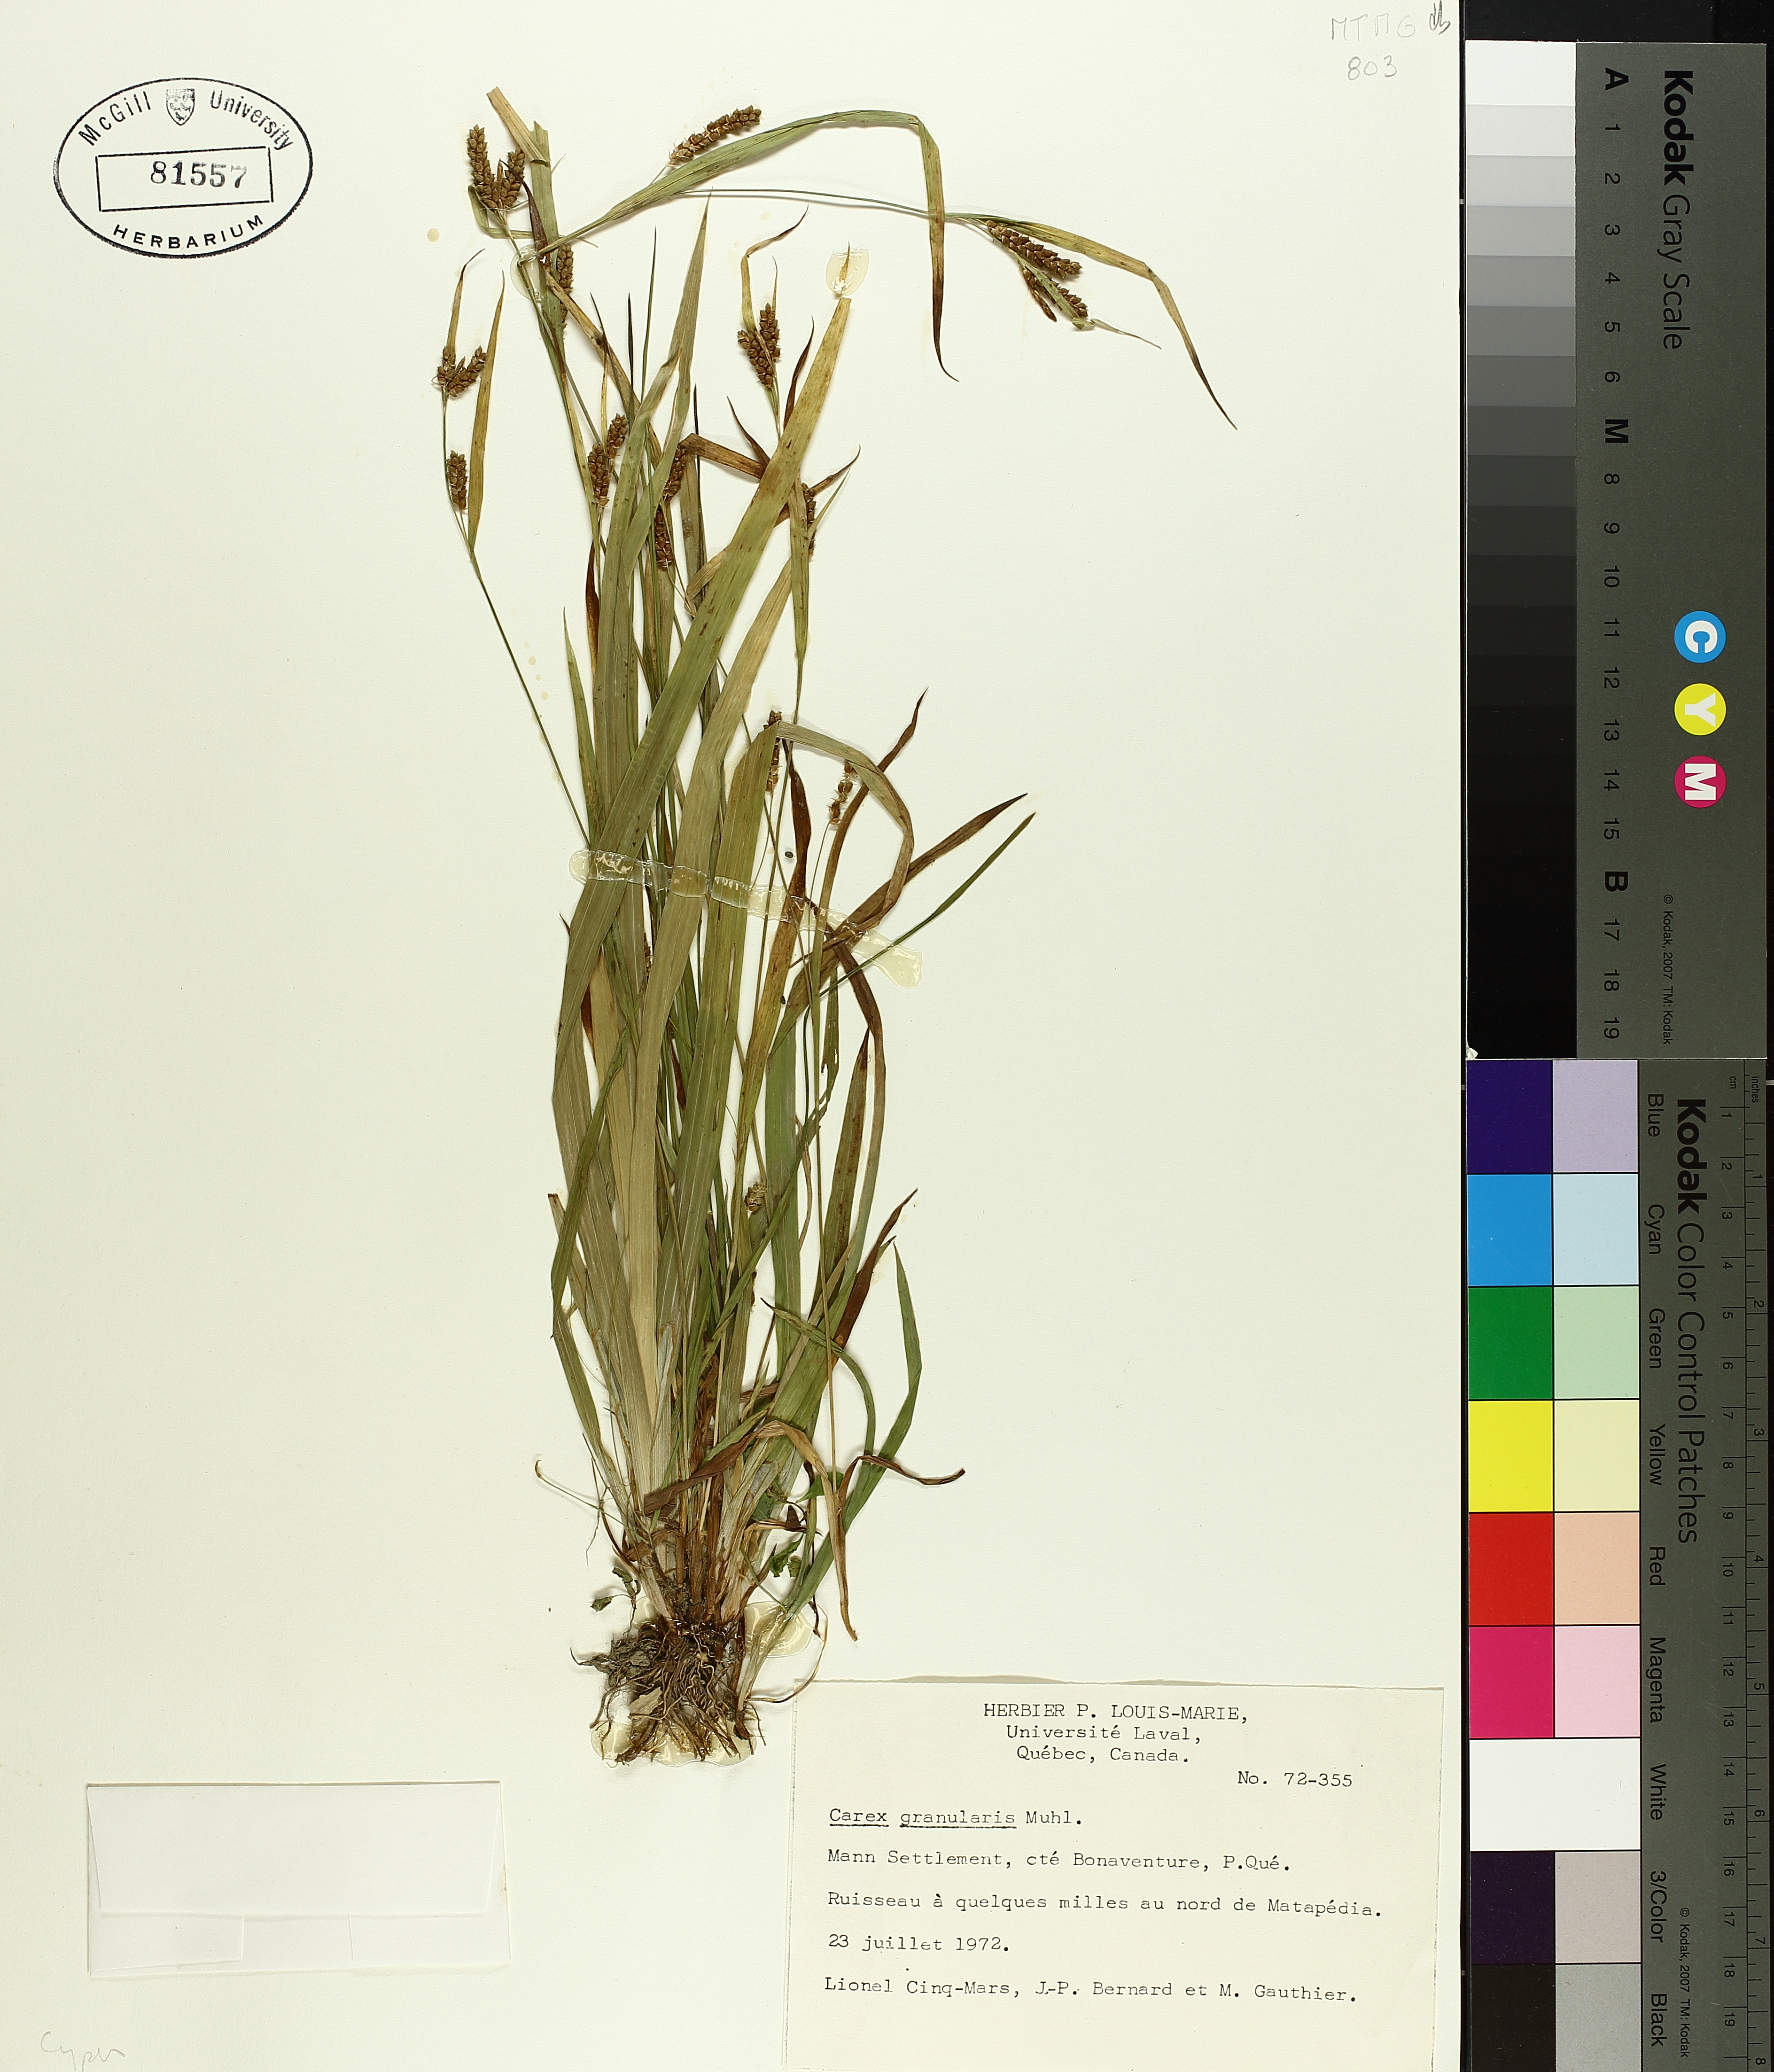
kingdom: Plantae
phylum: Tracheophyta
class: Liliopsida
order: Poales
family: Cyperaceae
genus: Carex
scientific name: Carex granularis
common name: Granular sedge
